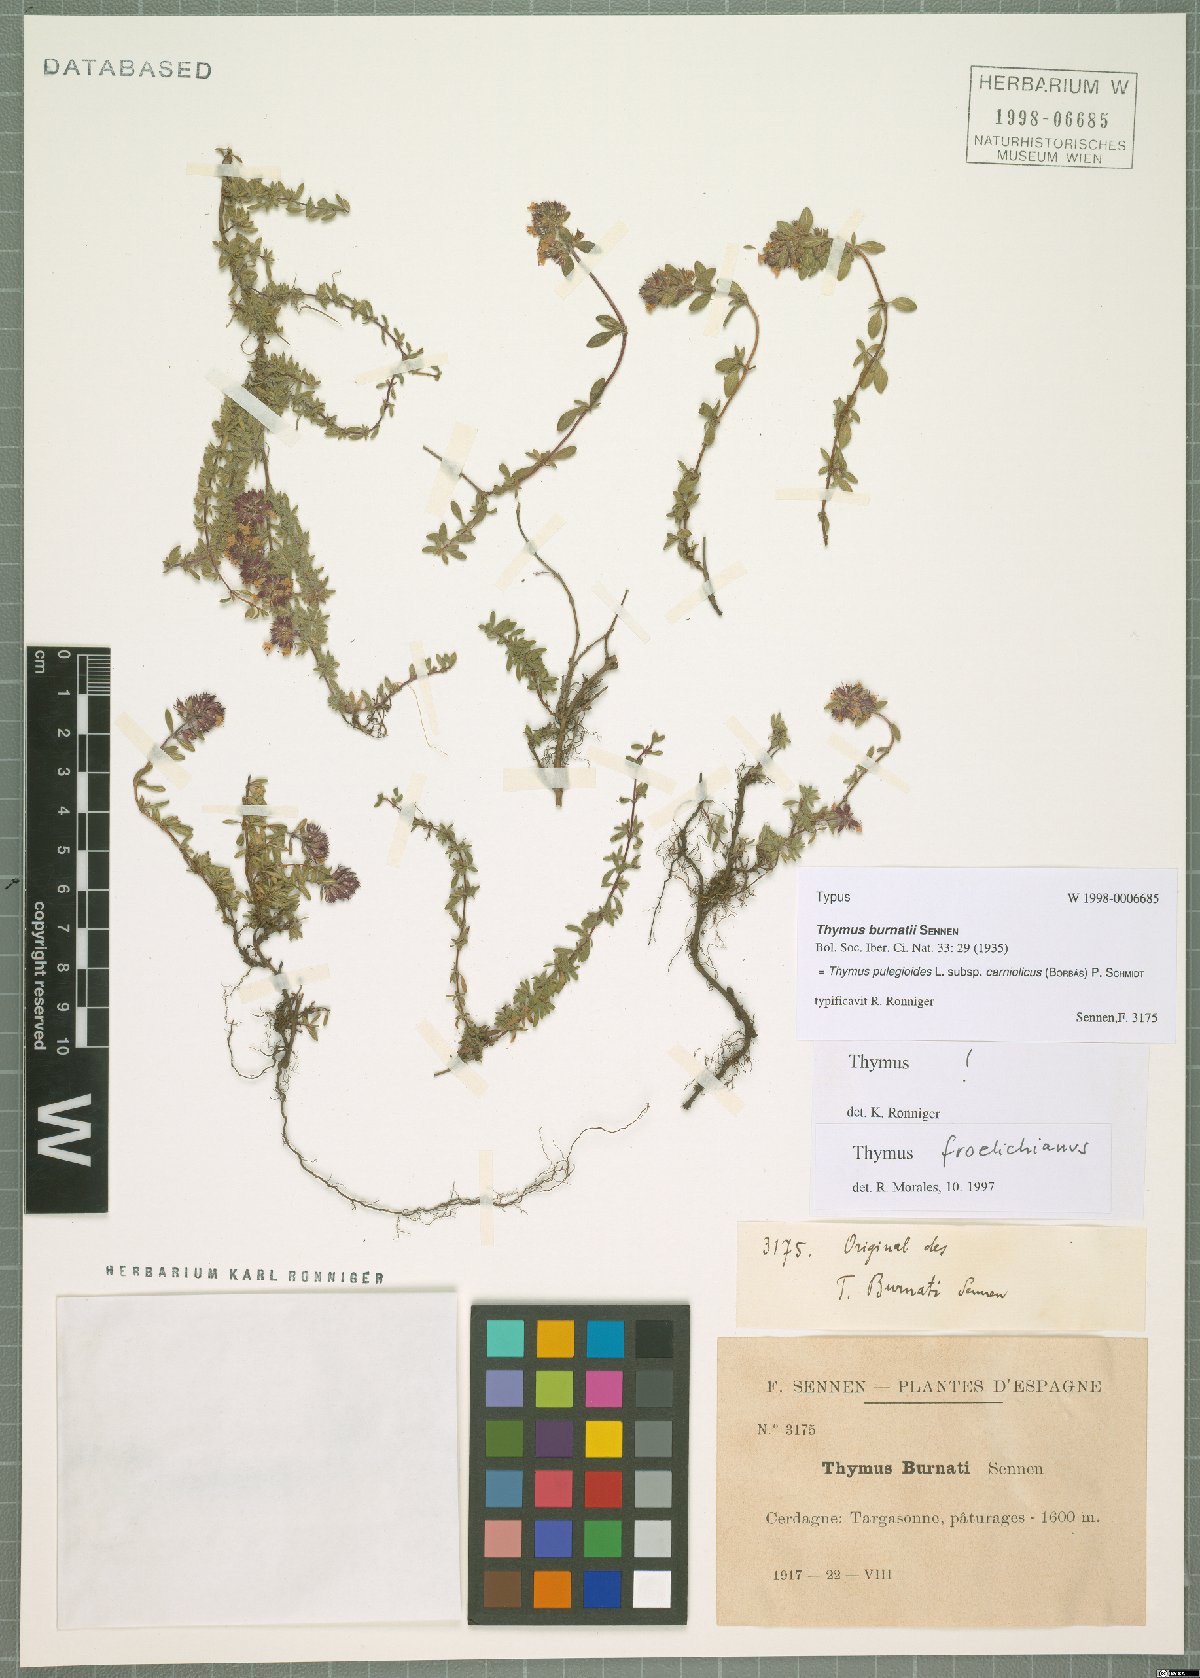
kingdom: Plantae
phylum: Tracheophyta
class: Magnoliopsida
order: Lamiales
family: Lamiaceae
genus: Thymus
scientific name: Thymus pannonicus
